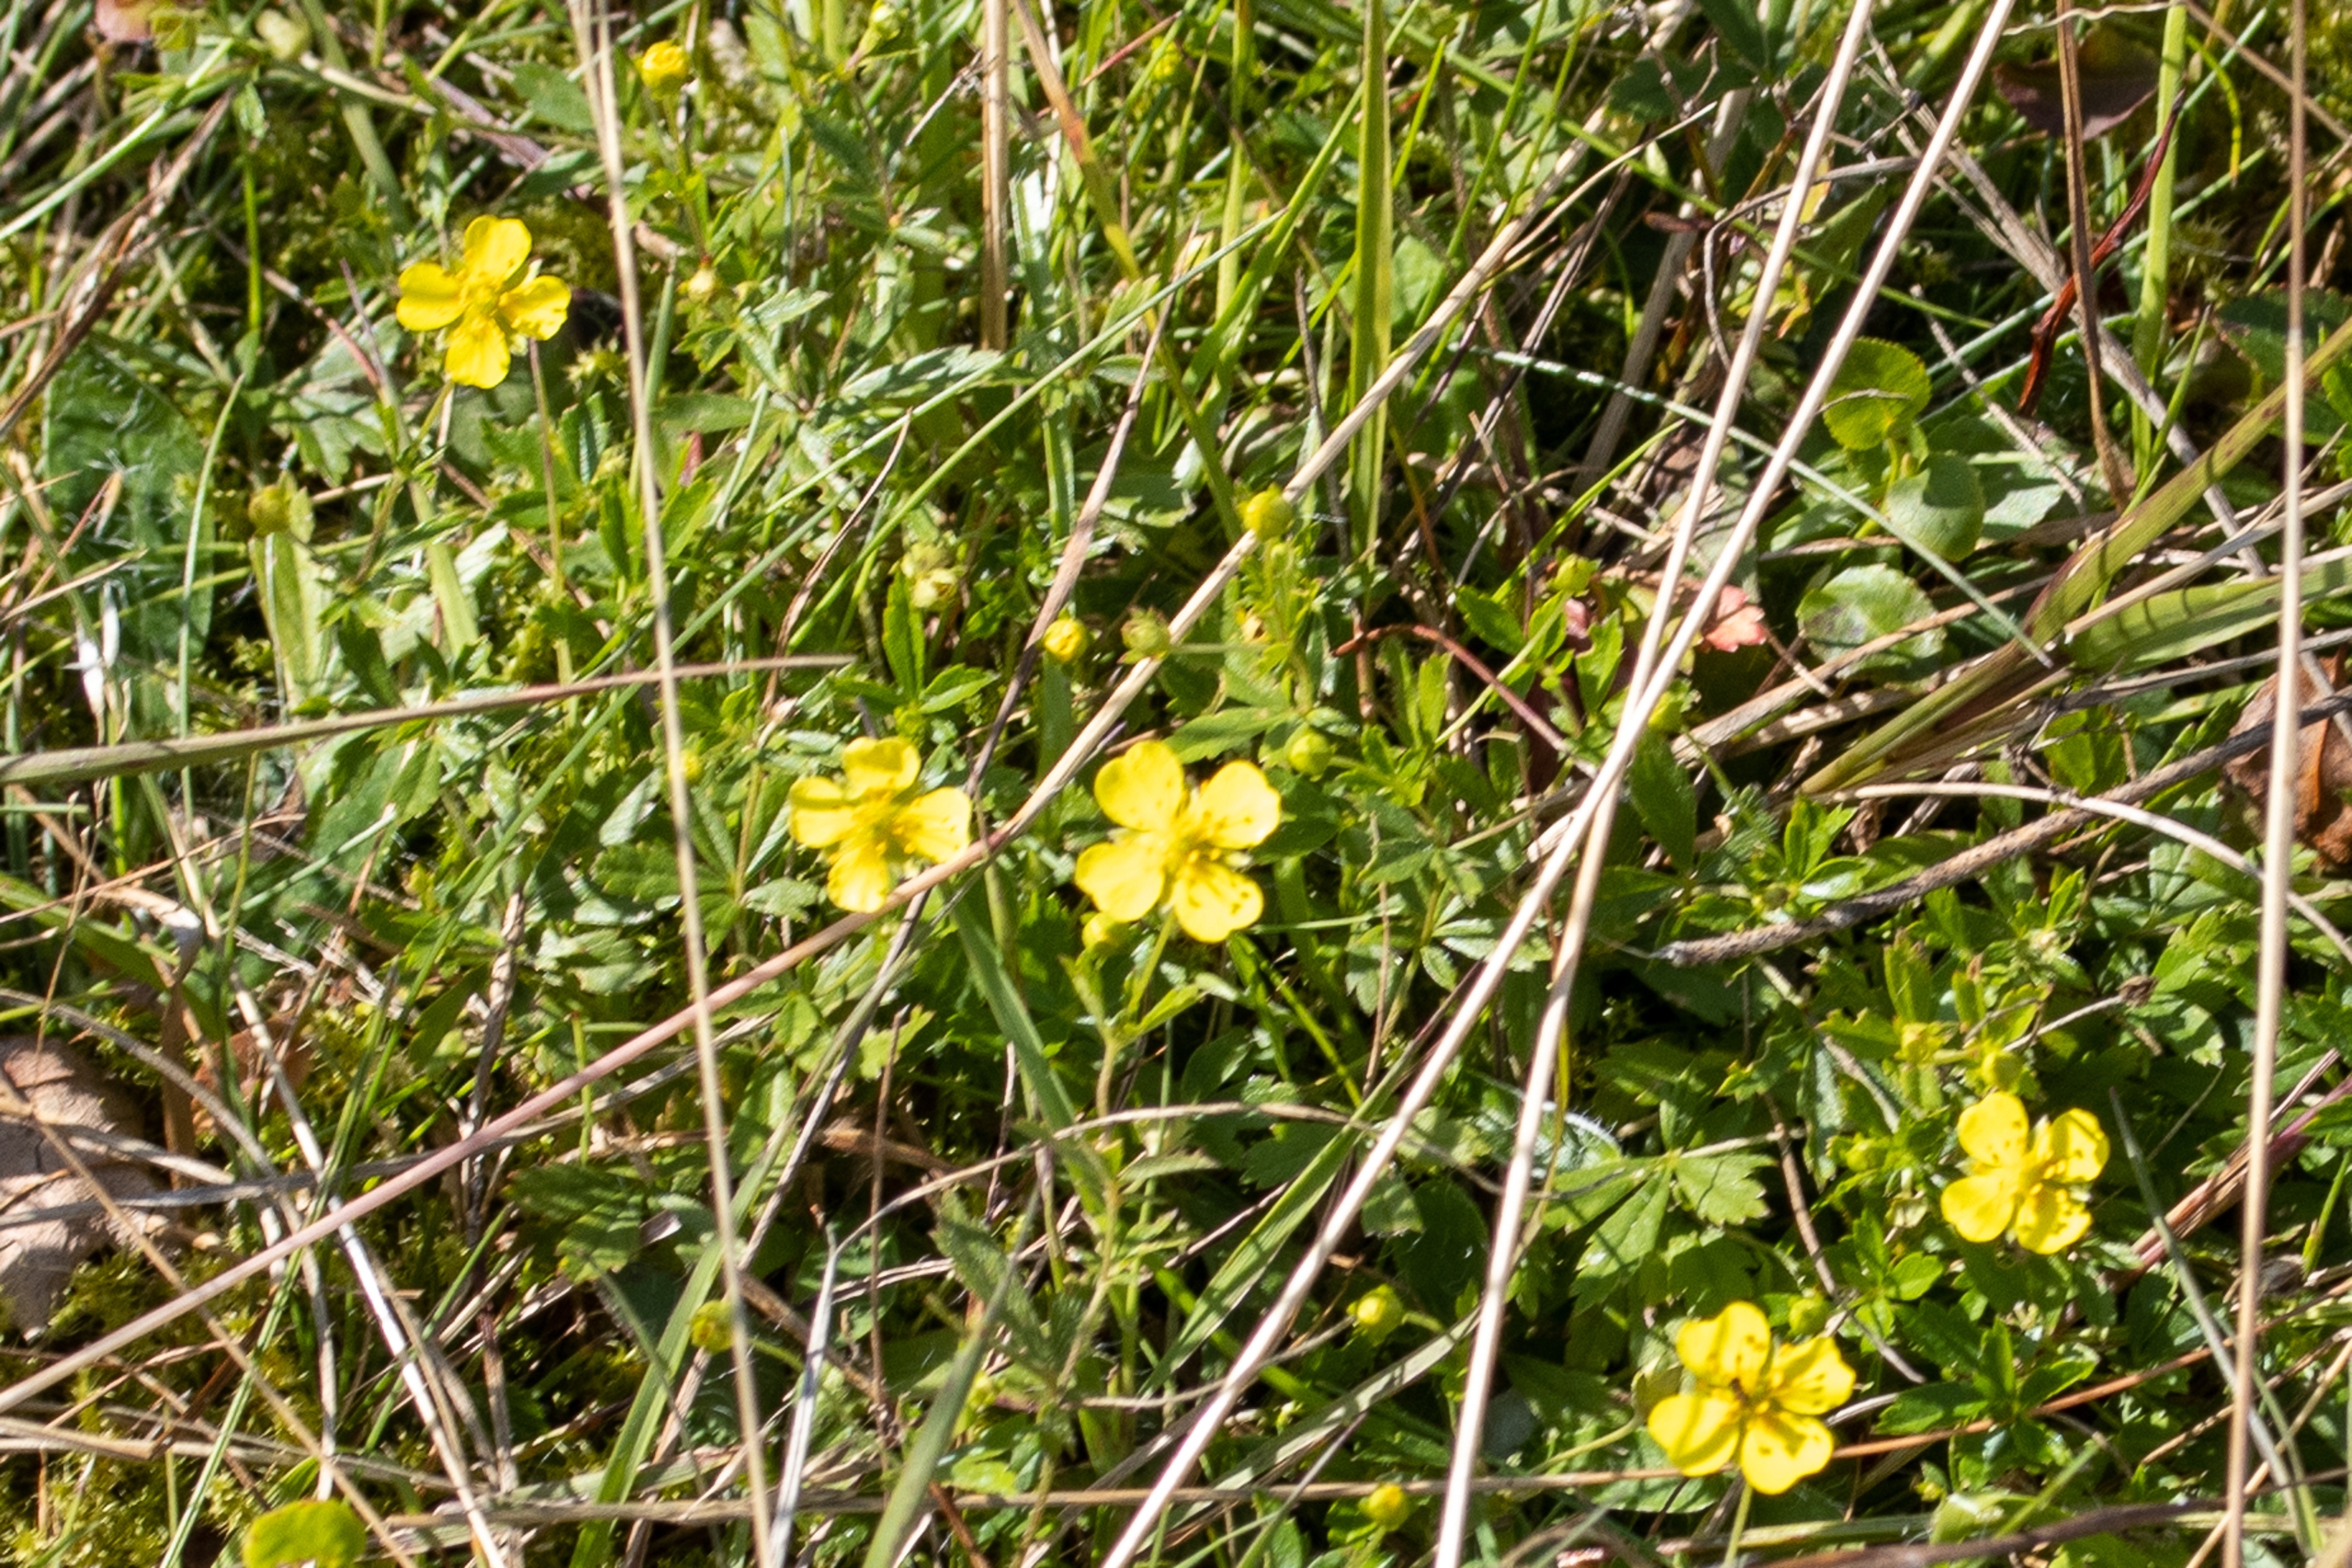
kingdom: Plantae
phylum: Tracheophyta
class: Magnoliopsida
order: Rosales
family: Rosaceae
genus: Potentilla
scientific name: Potentilla erecta
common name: Tormentil
